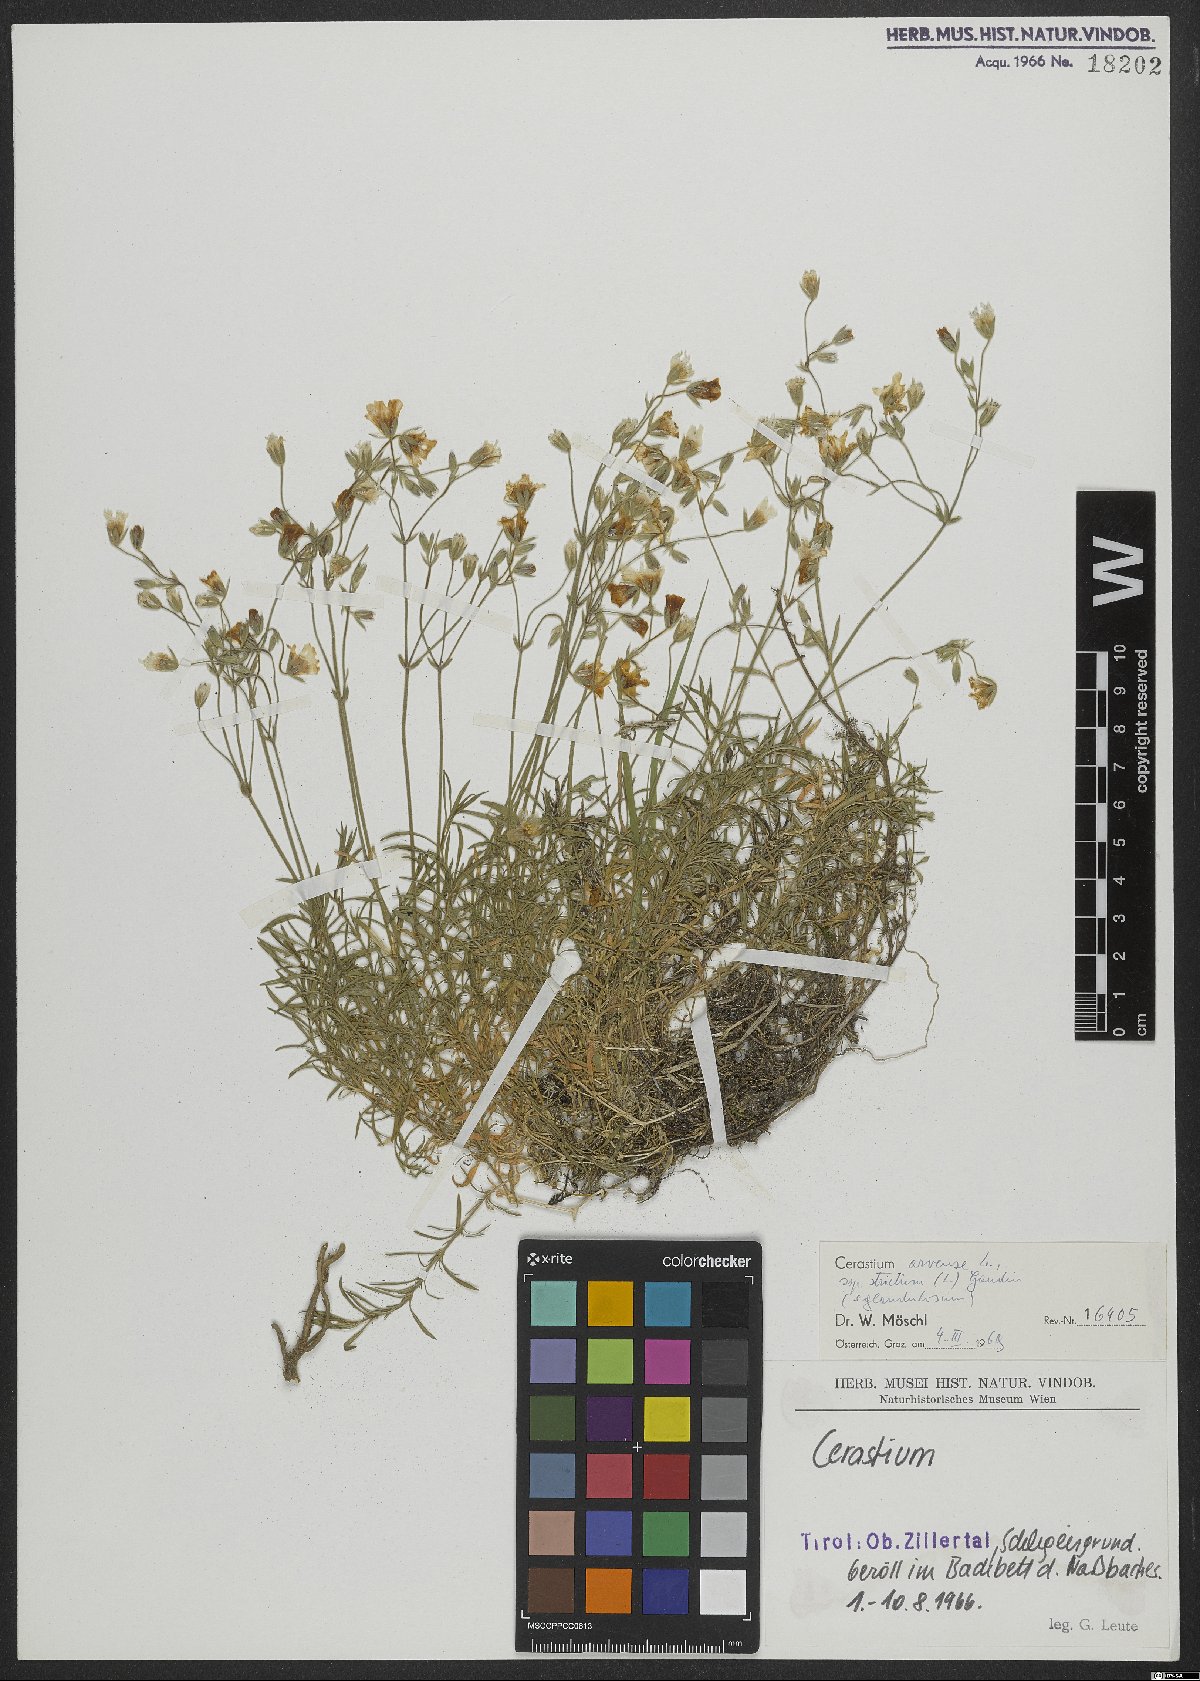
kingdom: Plantae
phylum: Tracheophyta
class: Magnoliopsida
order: Caryophyllales
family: Caryophyllaceae
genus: Cerastium
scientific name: Cerastium elongatum
